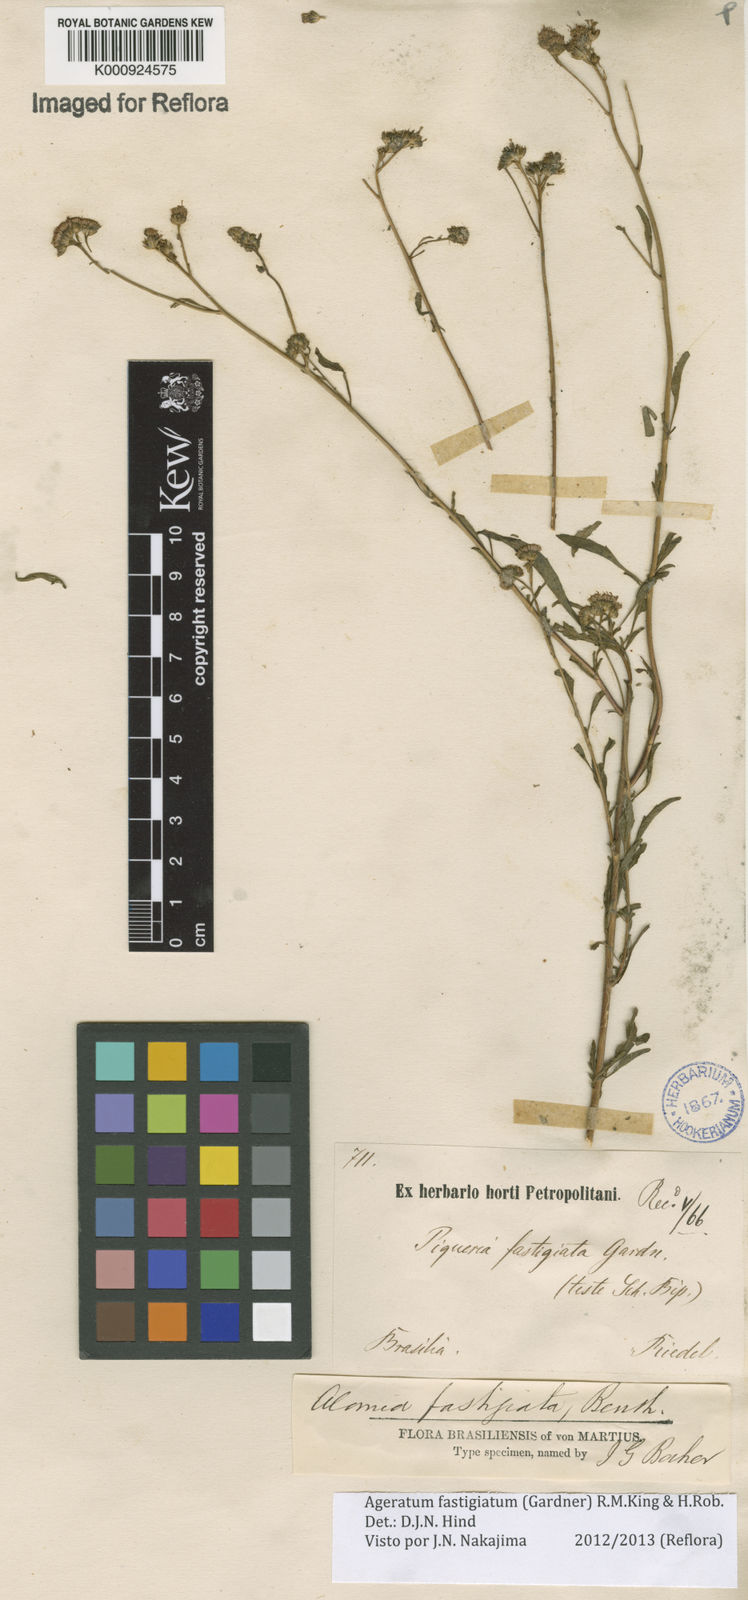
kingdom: Plantae
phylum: Tracheophyta
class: Magnoliopsida
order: Asterales
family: Asteraceae
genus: Ageratum
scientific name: Ageratum fastigiatum
